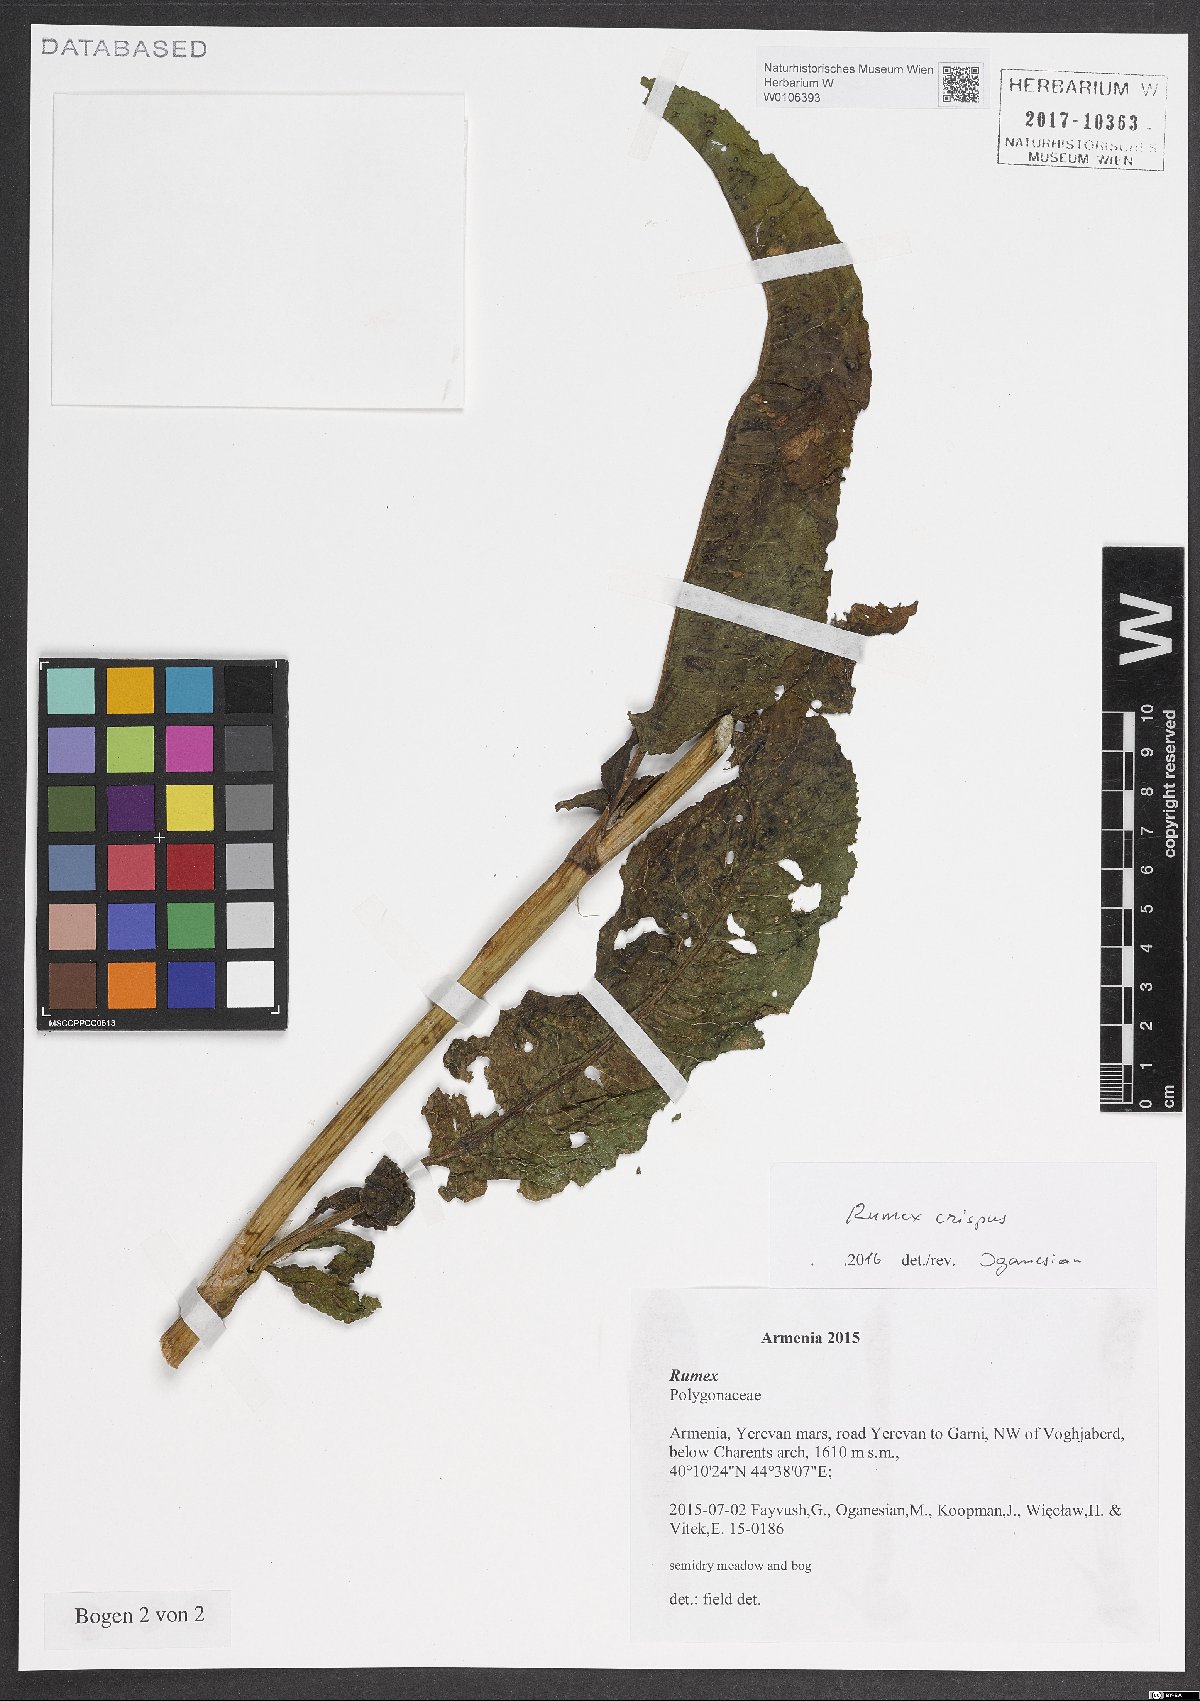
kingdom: Plantae
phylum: Tracheophyta
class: Magnoliopsida
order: Caryophyllales
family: Polygonaceae
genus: Rumex
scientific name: Rumex crispus
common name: Curled dock
